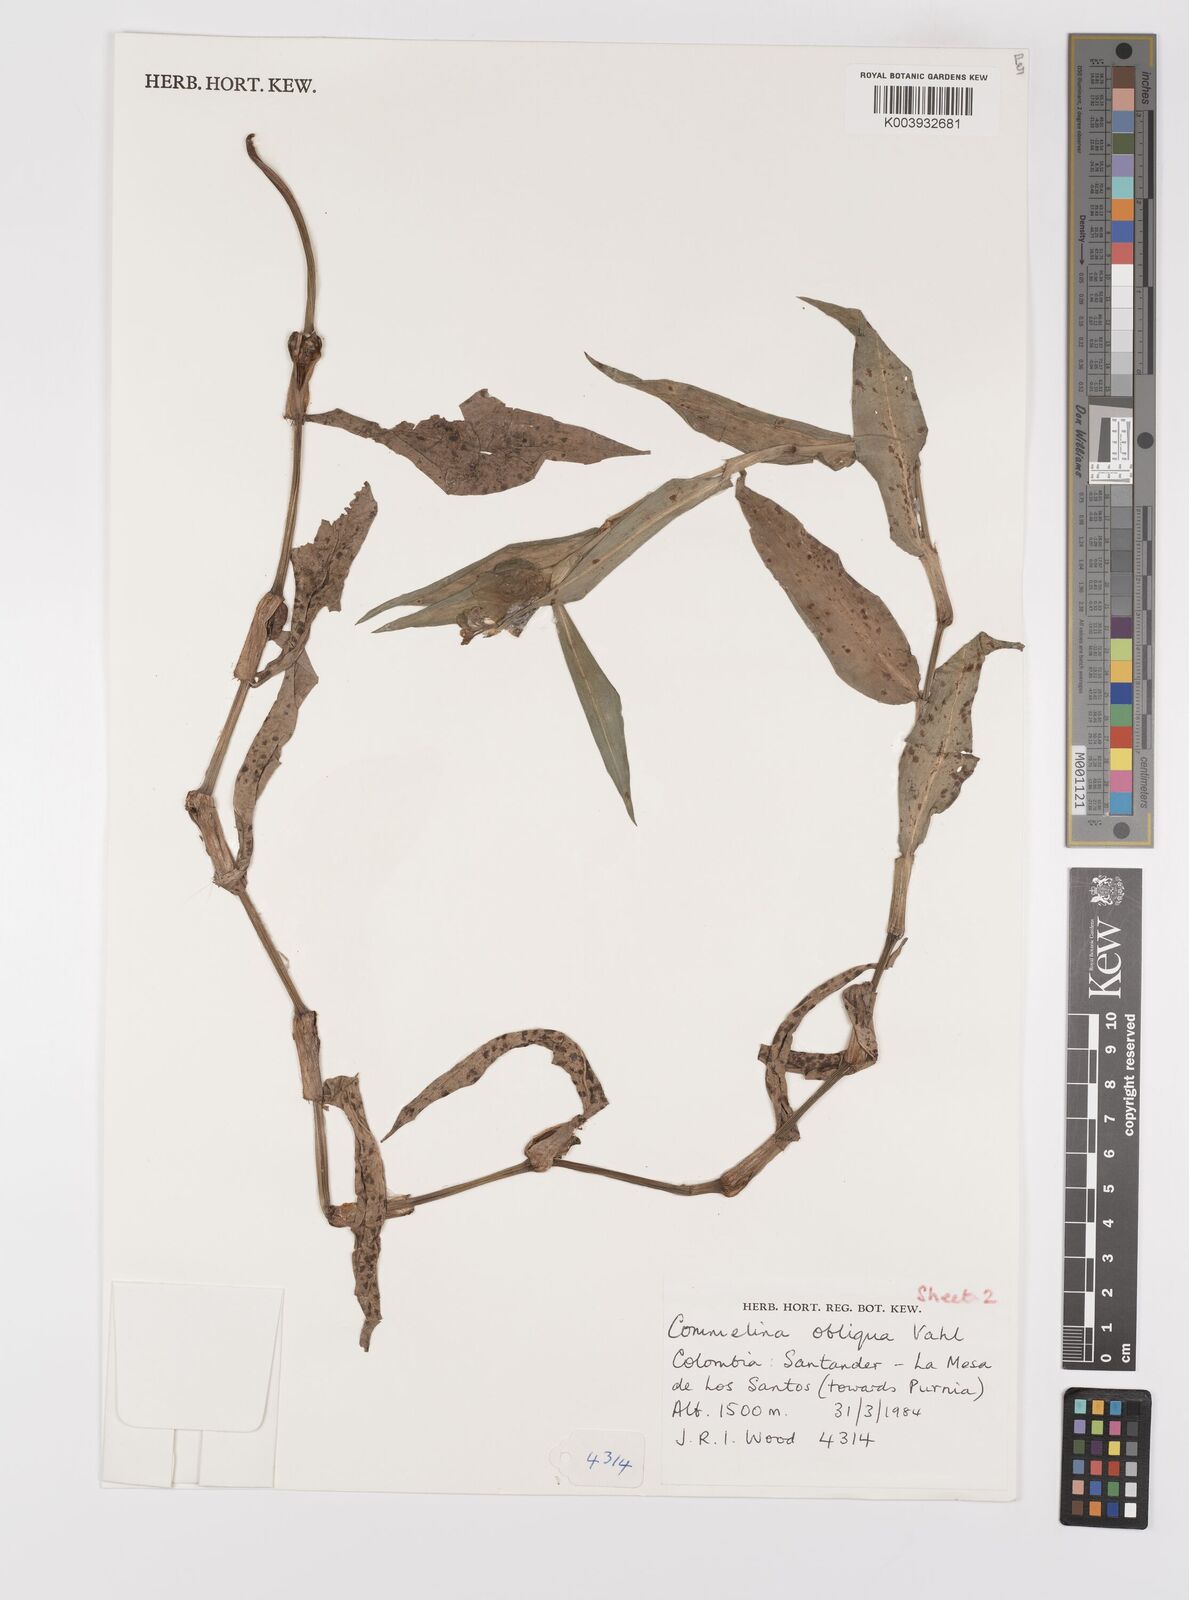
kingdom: Plantae
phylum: Tracheophyta
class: Liliopsida
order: Commelinales
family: Commelinaceae
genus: Commelina
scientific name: Commelina obliqua
